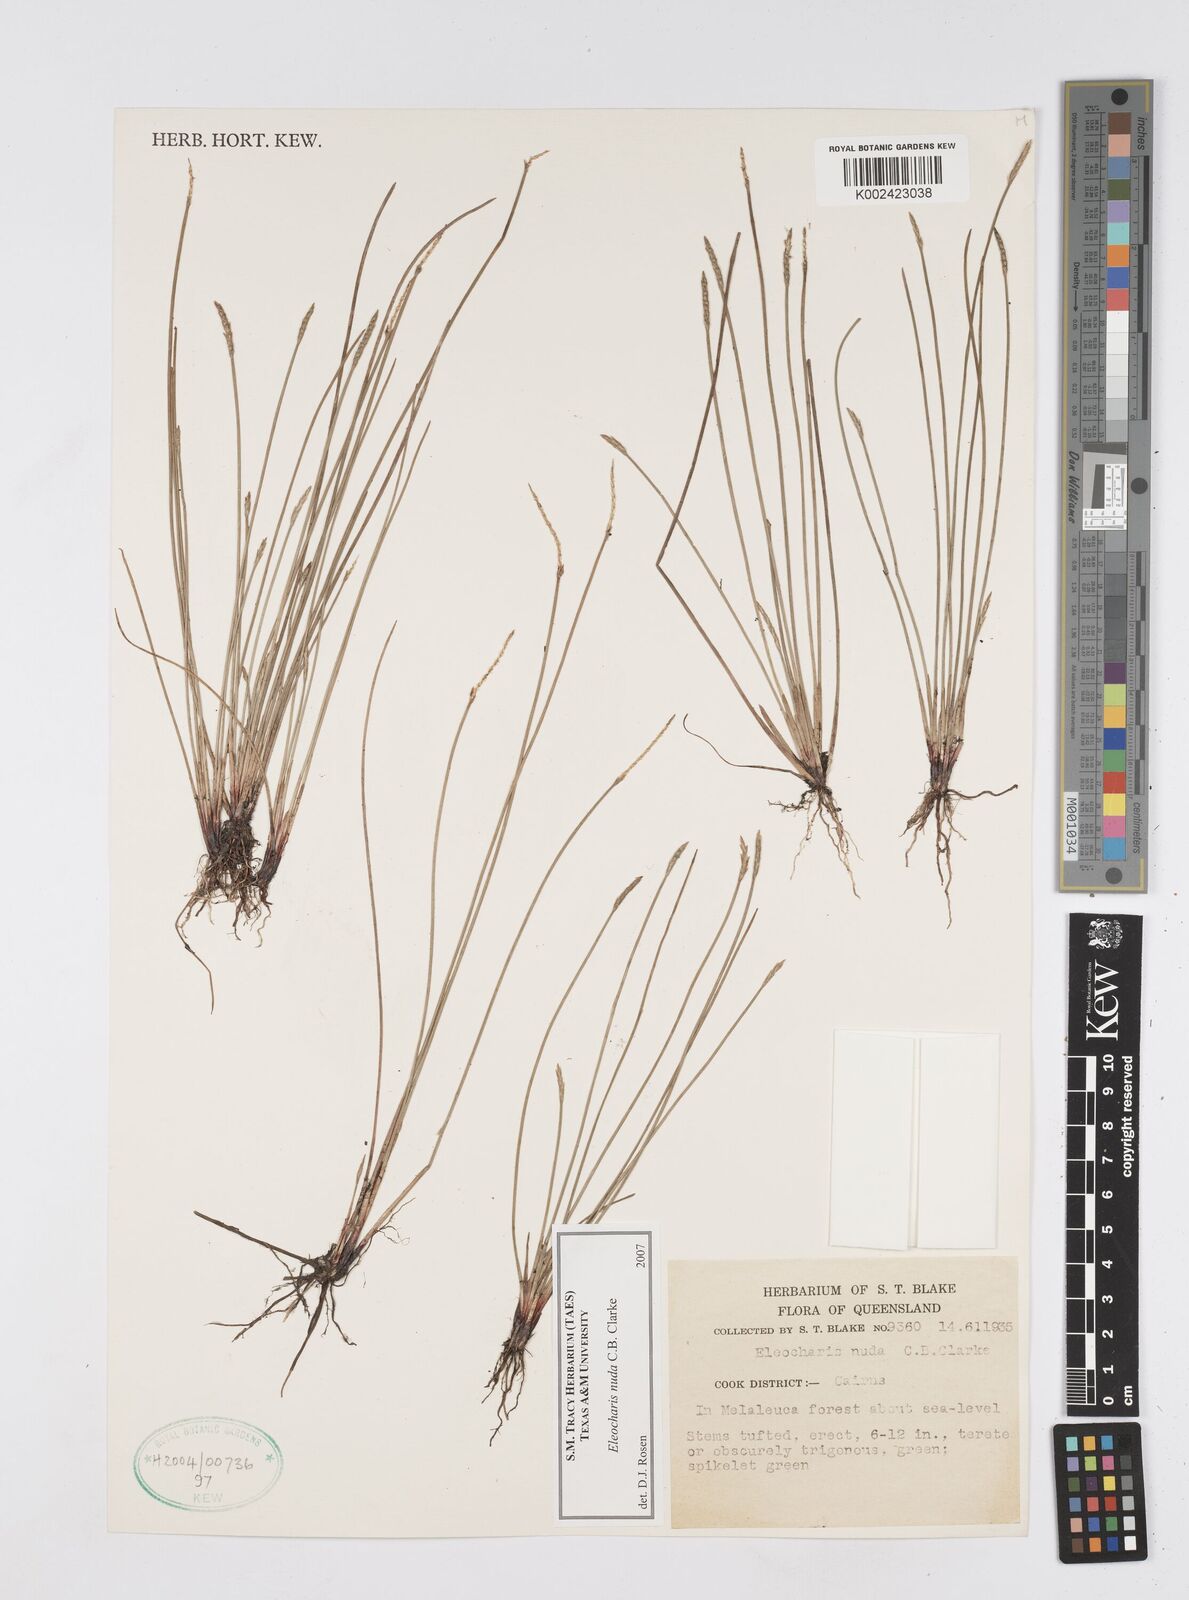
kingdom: Plantae
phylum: Tracheophyta
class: Liliopsida
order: Poales
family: Cyperaceae
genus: Eleocharis
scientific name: Eleocharis nuda
